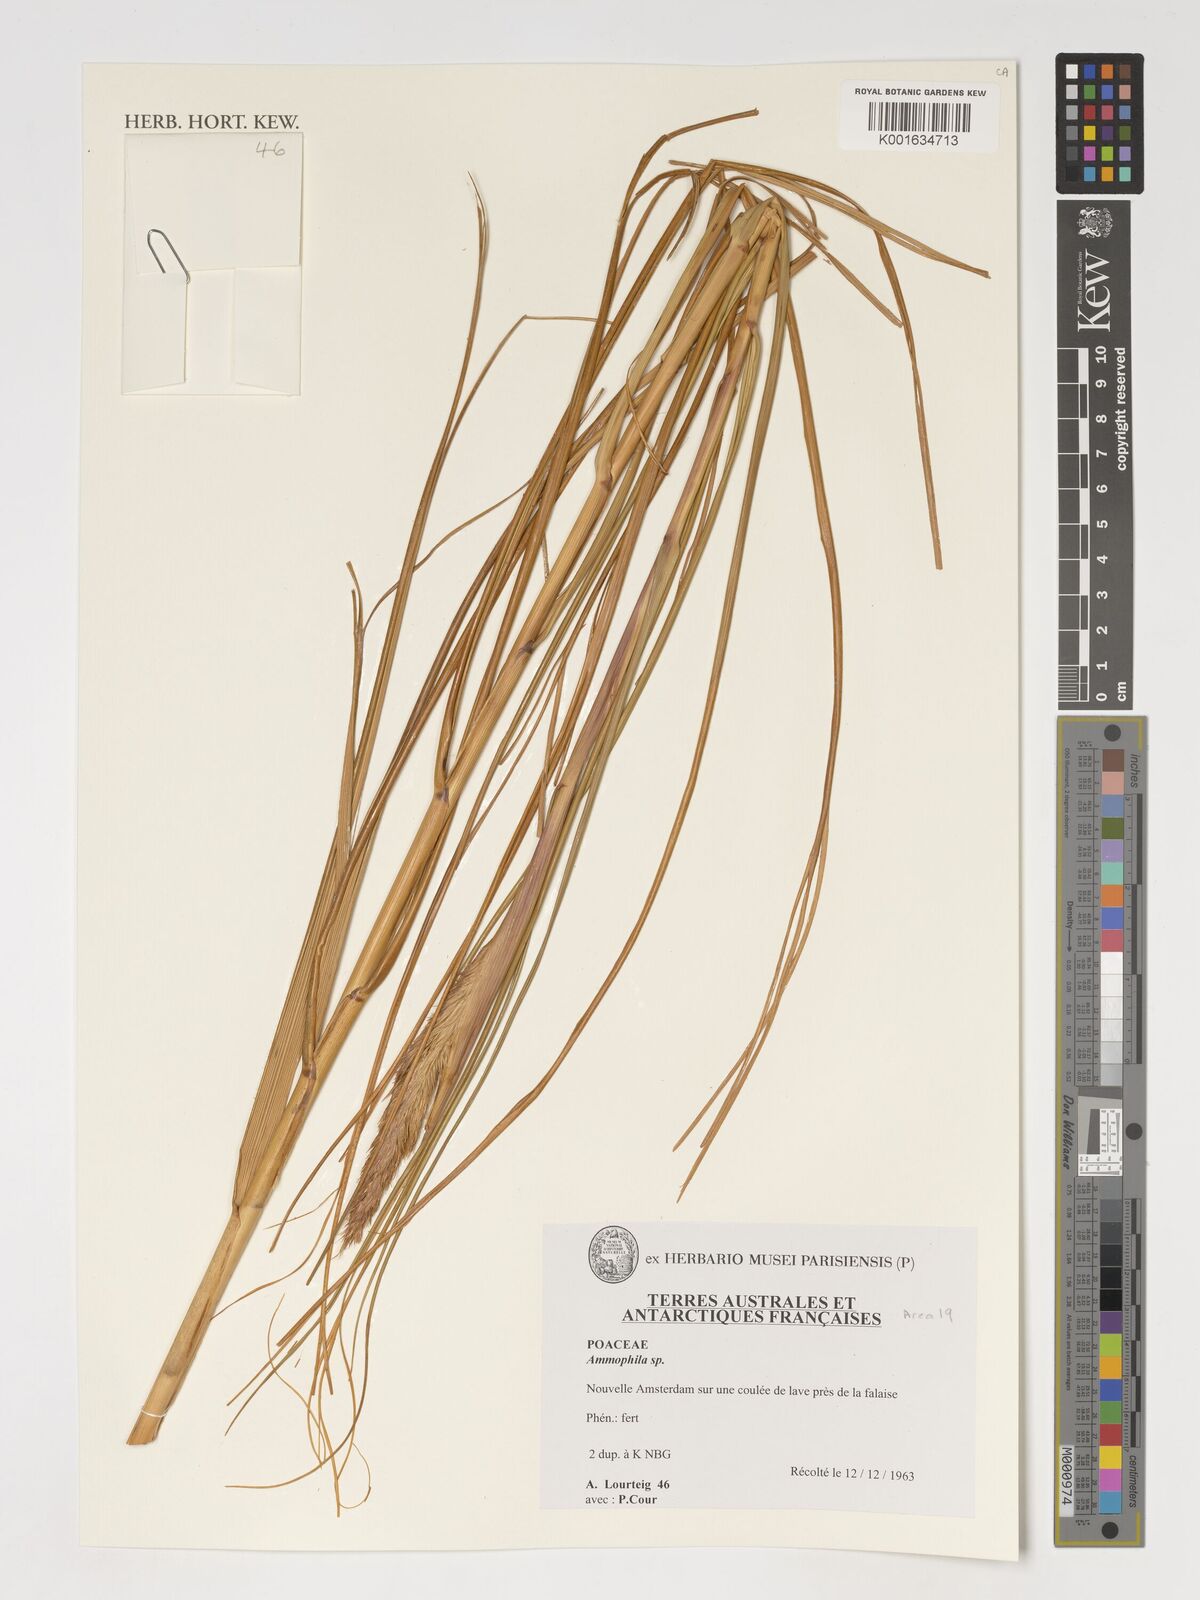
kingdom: Animalia
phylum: Arthropoda
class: Insecta
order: Hymenoptera
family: Sphecidae
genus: Ammophila
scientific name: Ammophila
